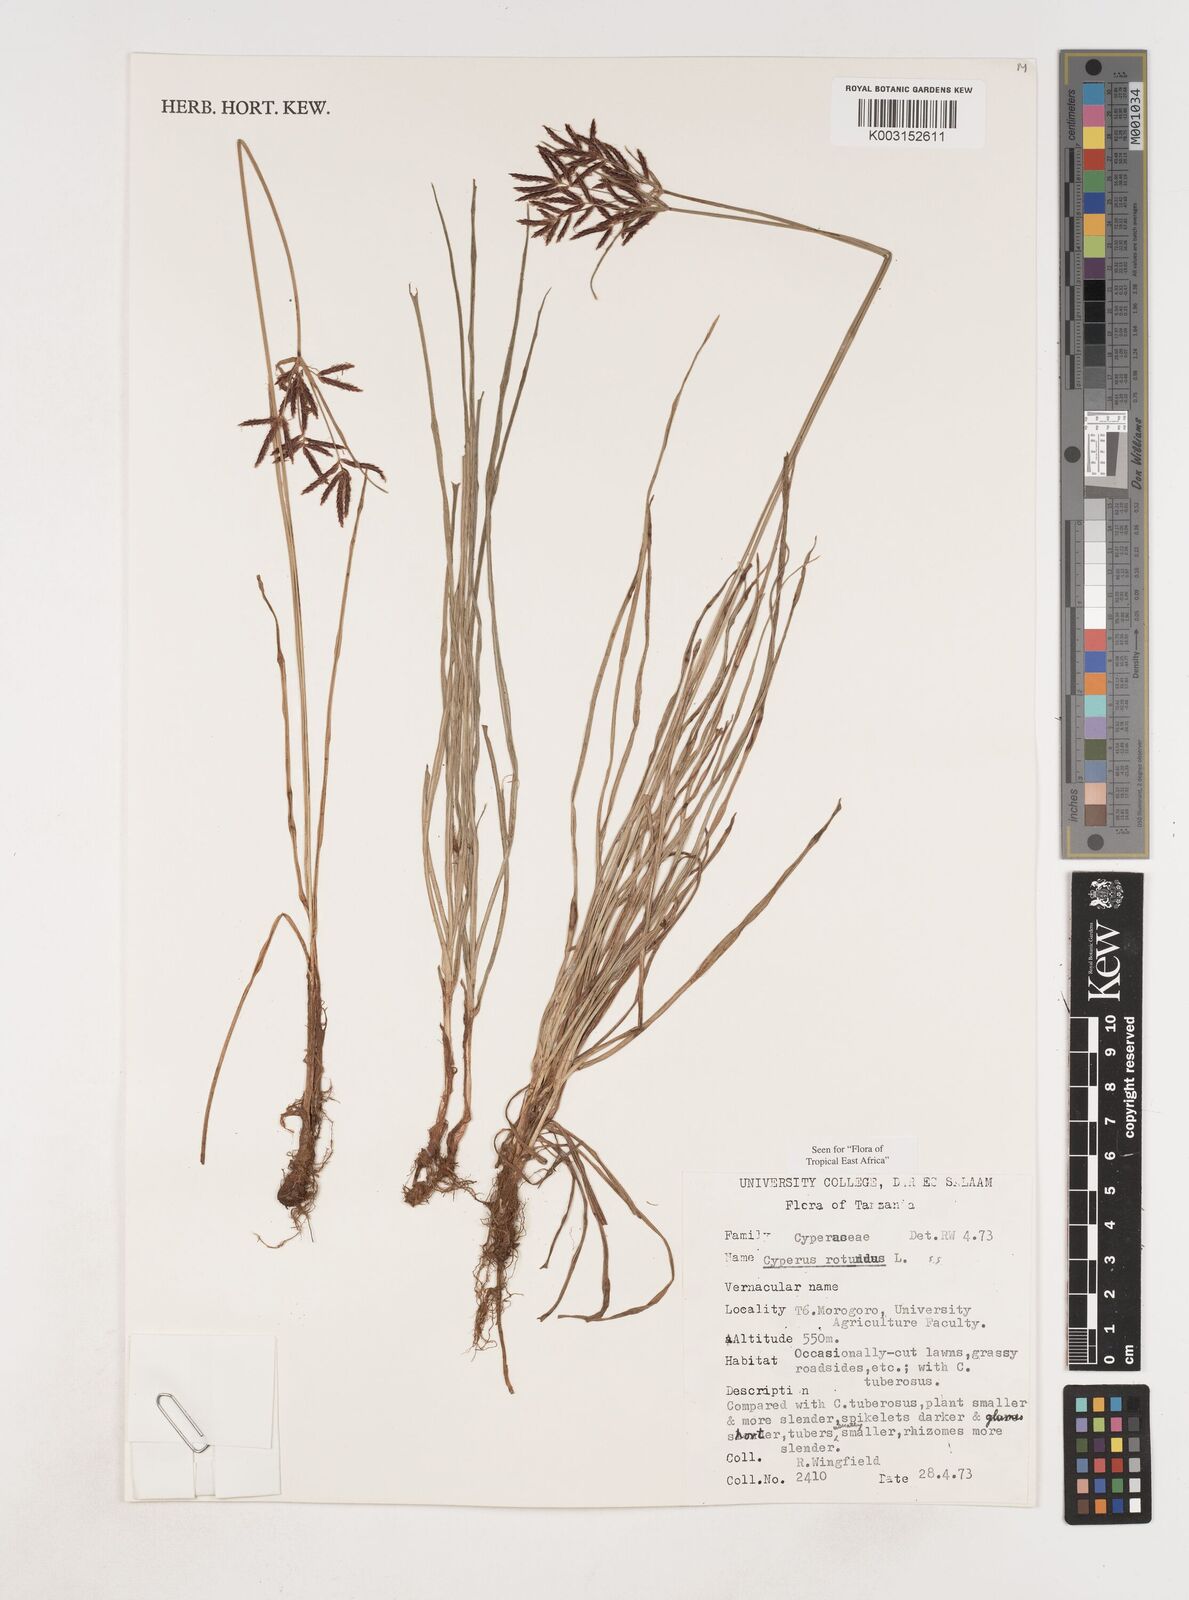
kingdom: Plantae
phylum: Tracheophyta
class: Liliopsida
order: Poales
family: Cyperaceae
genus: Cyperus
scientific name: Cyperus rotundus
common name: Nutgrass
